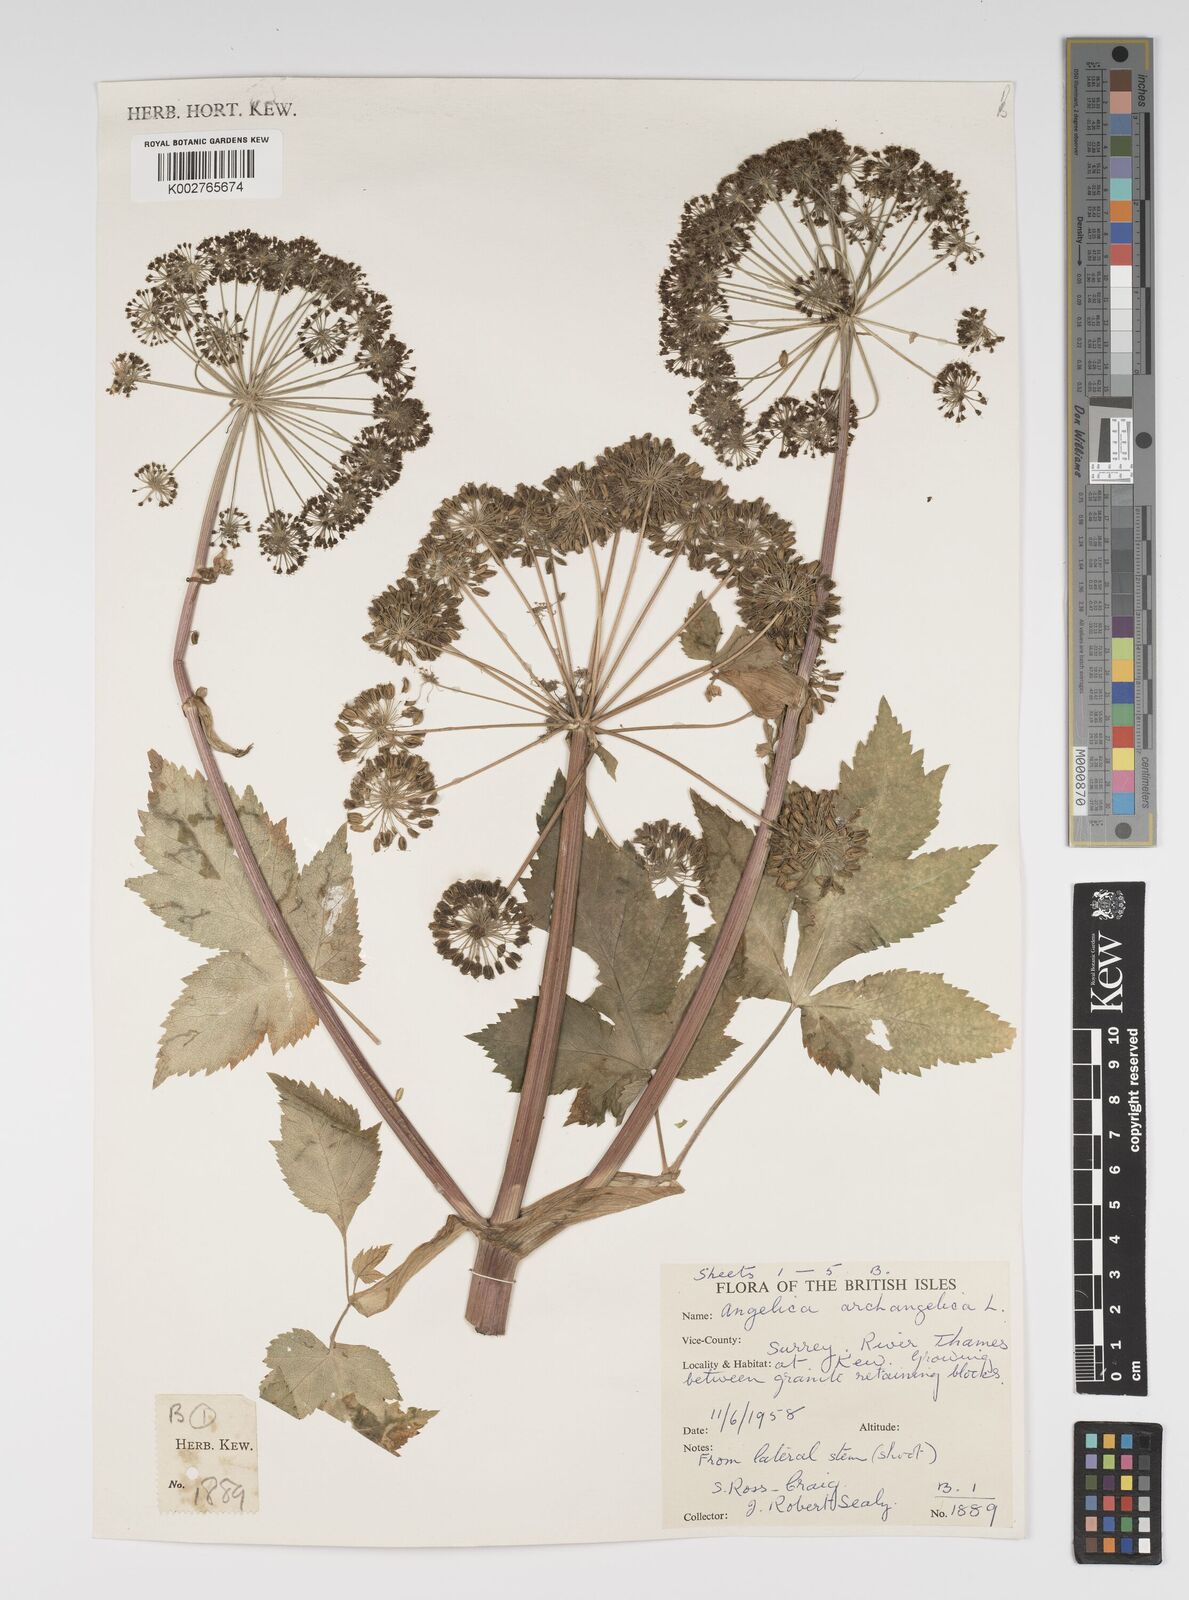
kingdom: Plantae
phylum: Tracheophyta
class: Magnoliopsida
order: Apiales
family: Apiaceae
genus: Angelica
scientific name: Angelica archangelica
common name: Garden angelica
